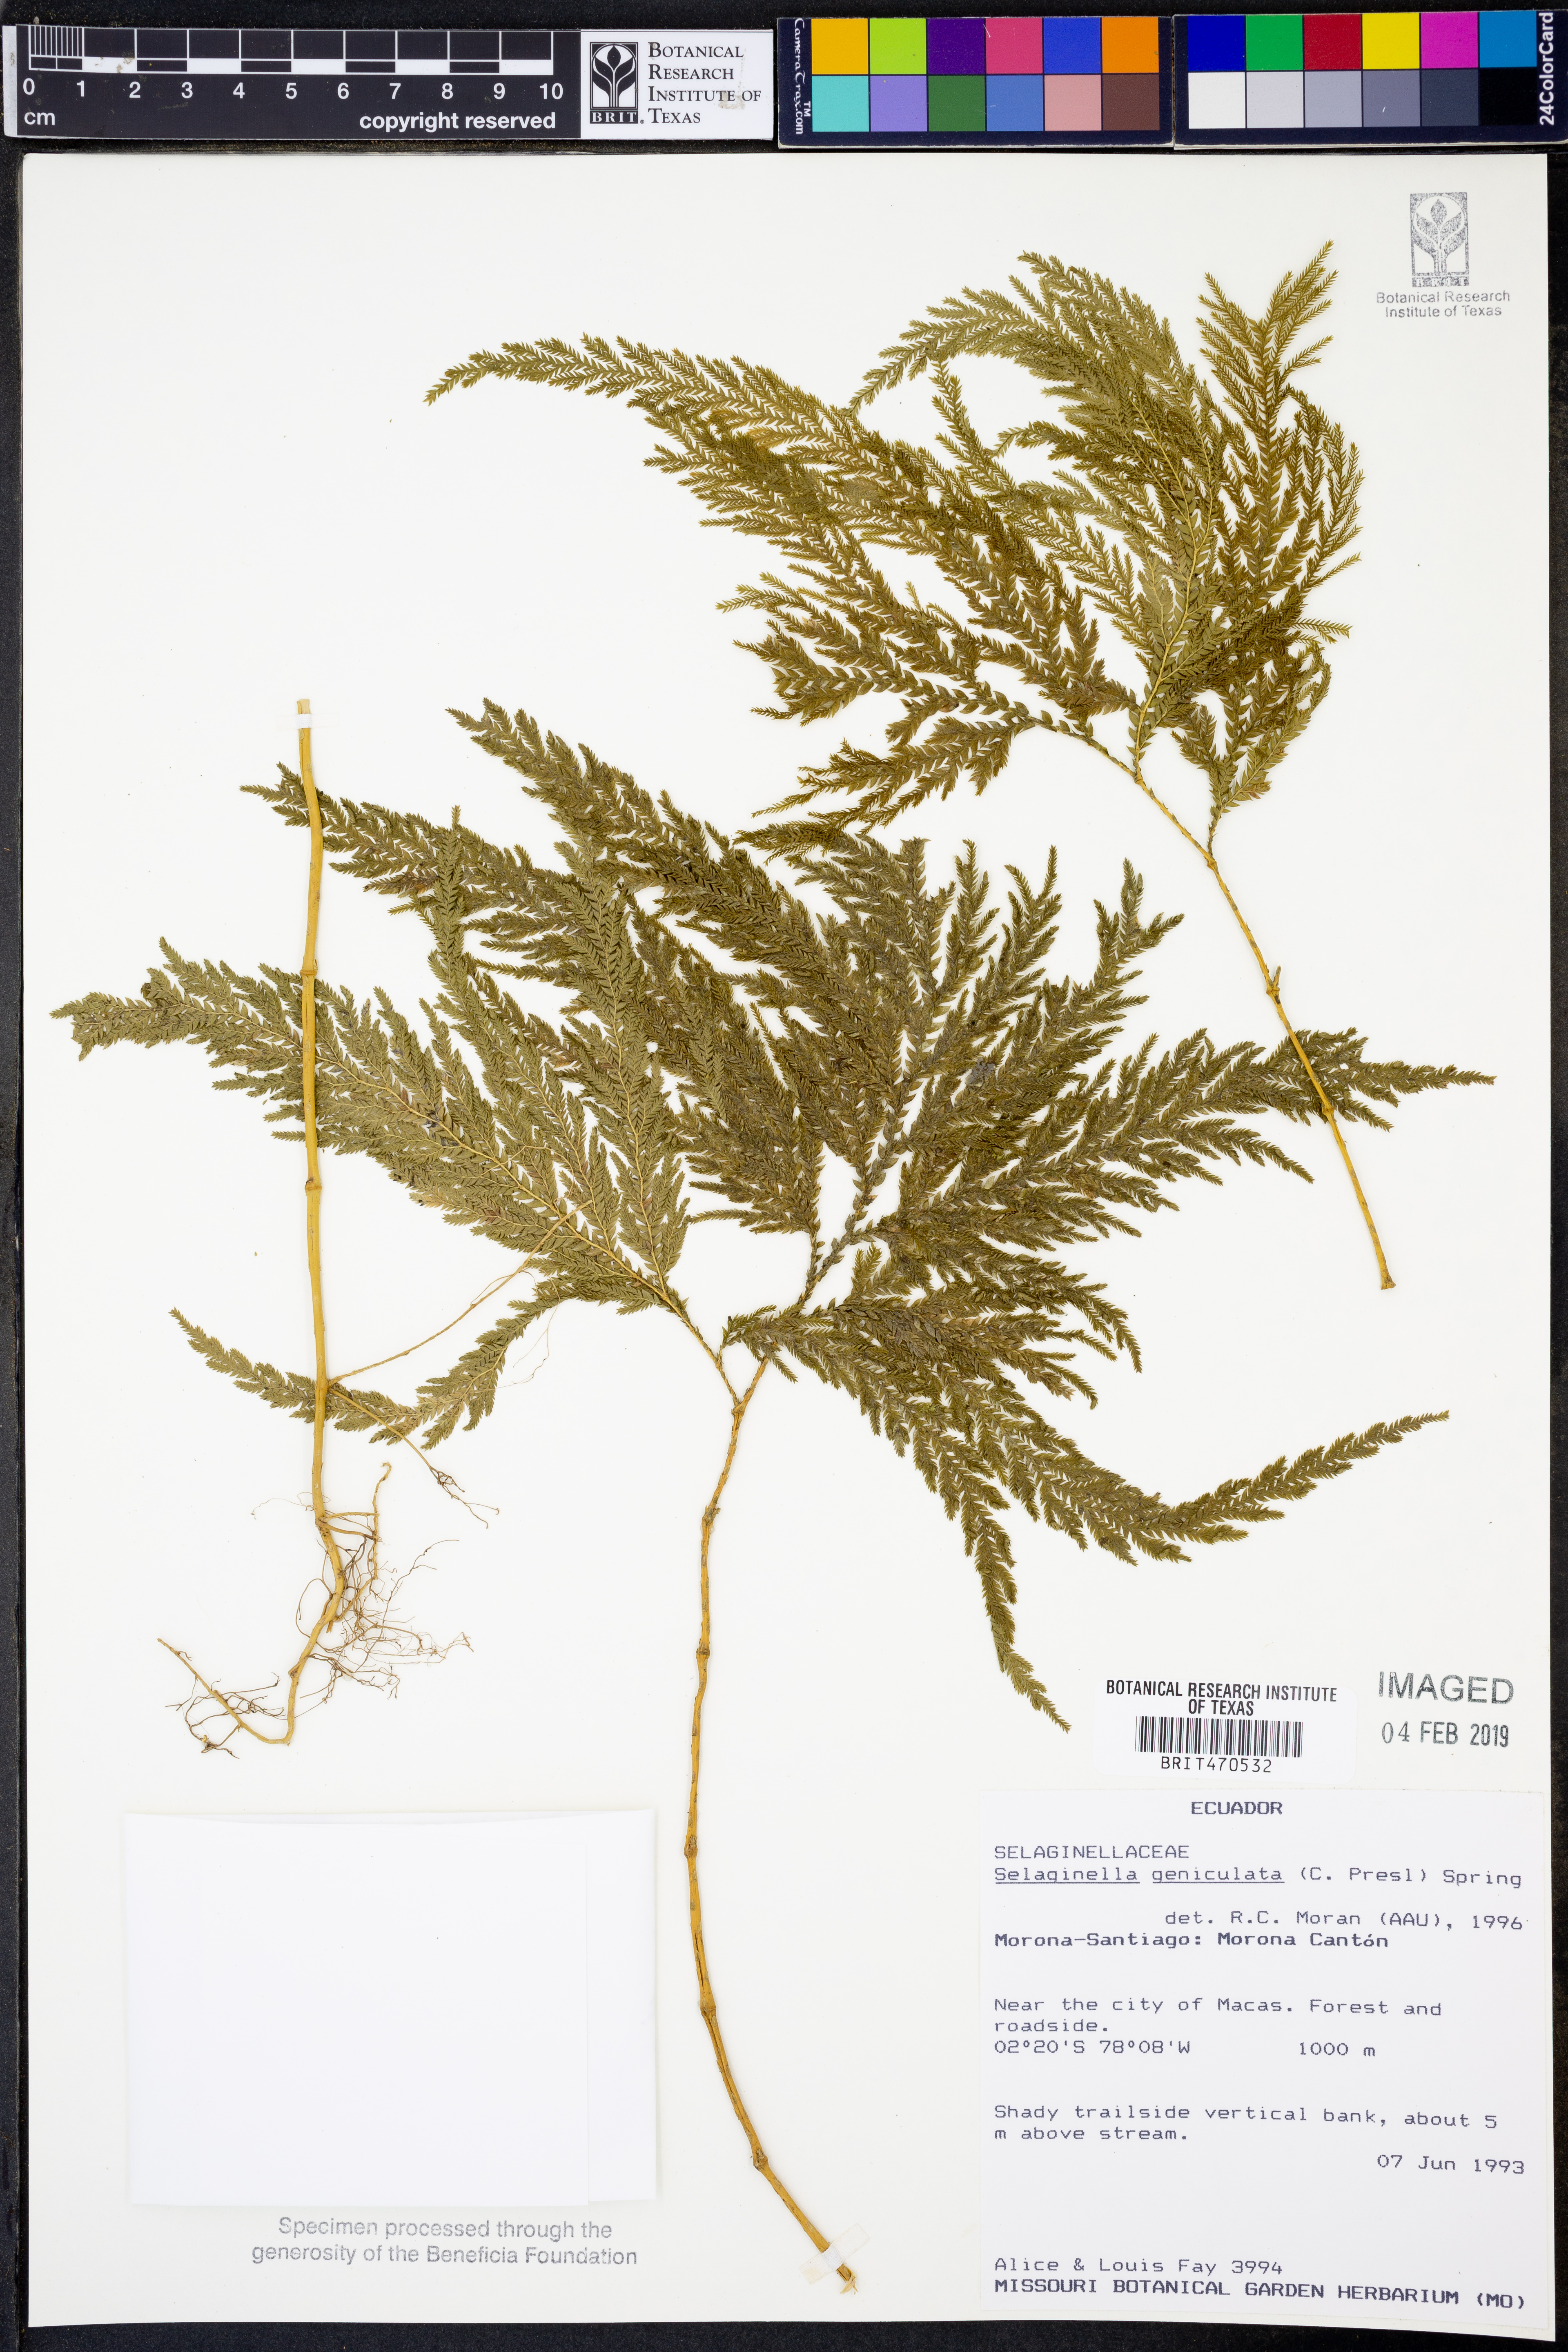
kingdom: Plantae
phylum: Tracheophyta
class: Lycopodiopsida
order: Selaginellales
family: Selaginellaceae
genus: Selaginella
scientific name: Selaginella geniculata
